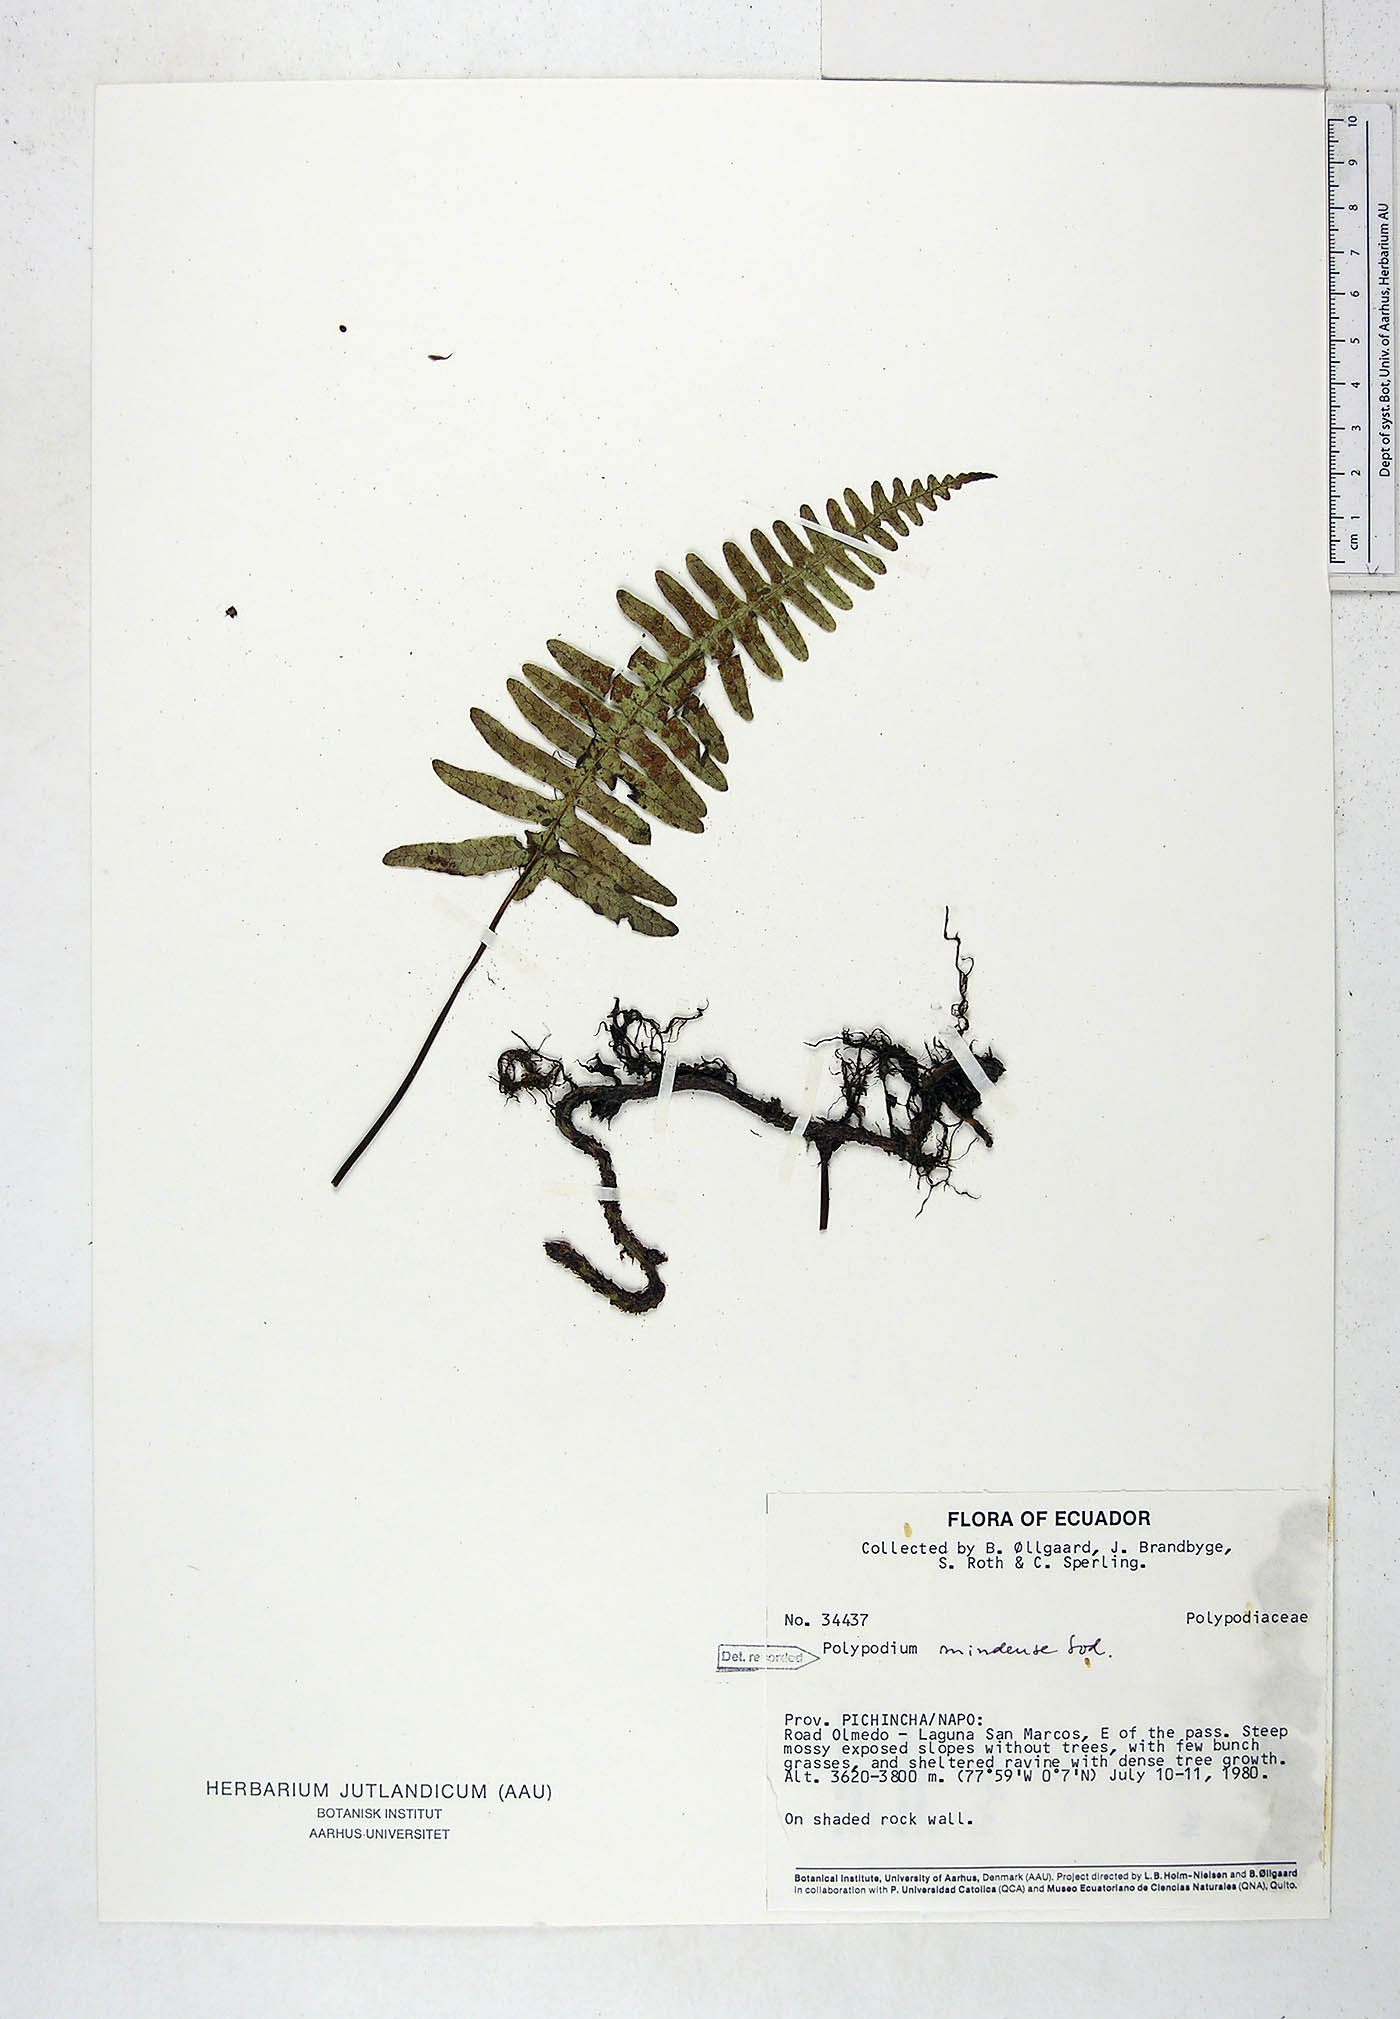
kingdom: Plantae
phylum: Tracheophyta
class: Polypodiopsida
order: Polypodiales
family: Polypodiaceae
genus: Serpocaulon
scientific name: Serpocaulon eleutherophlebium
